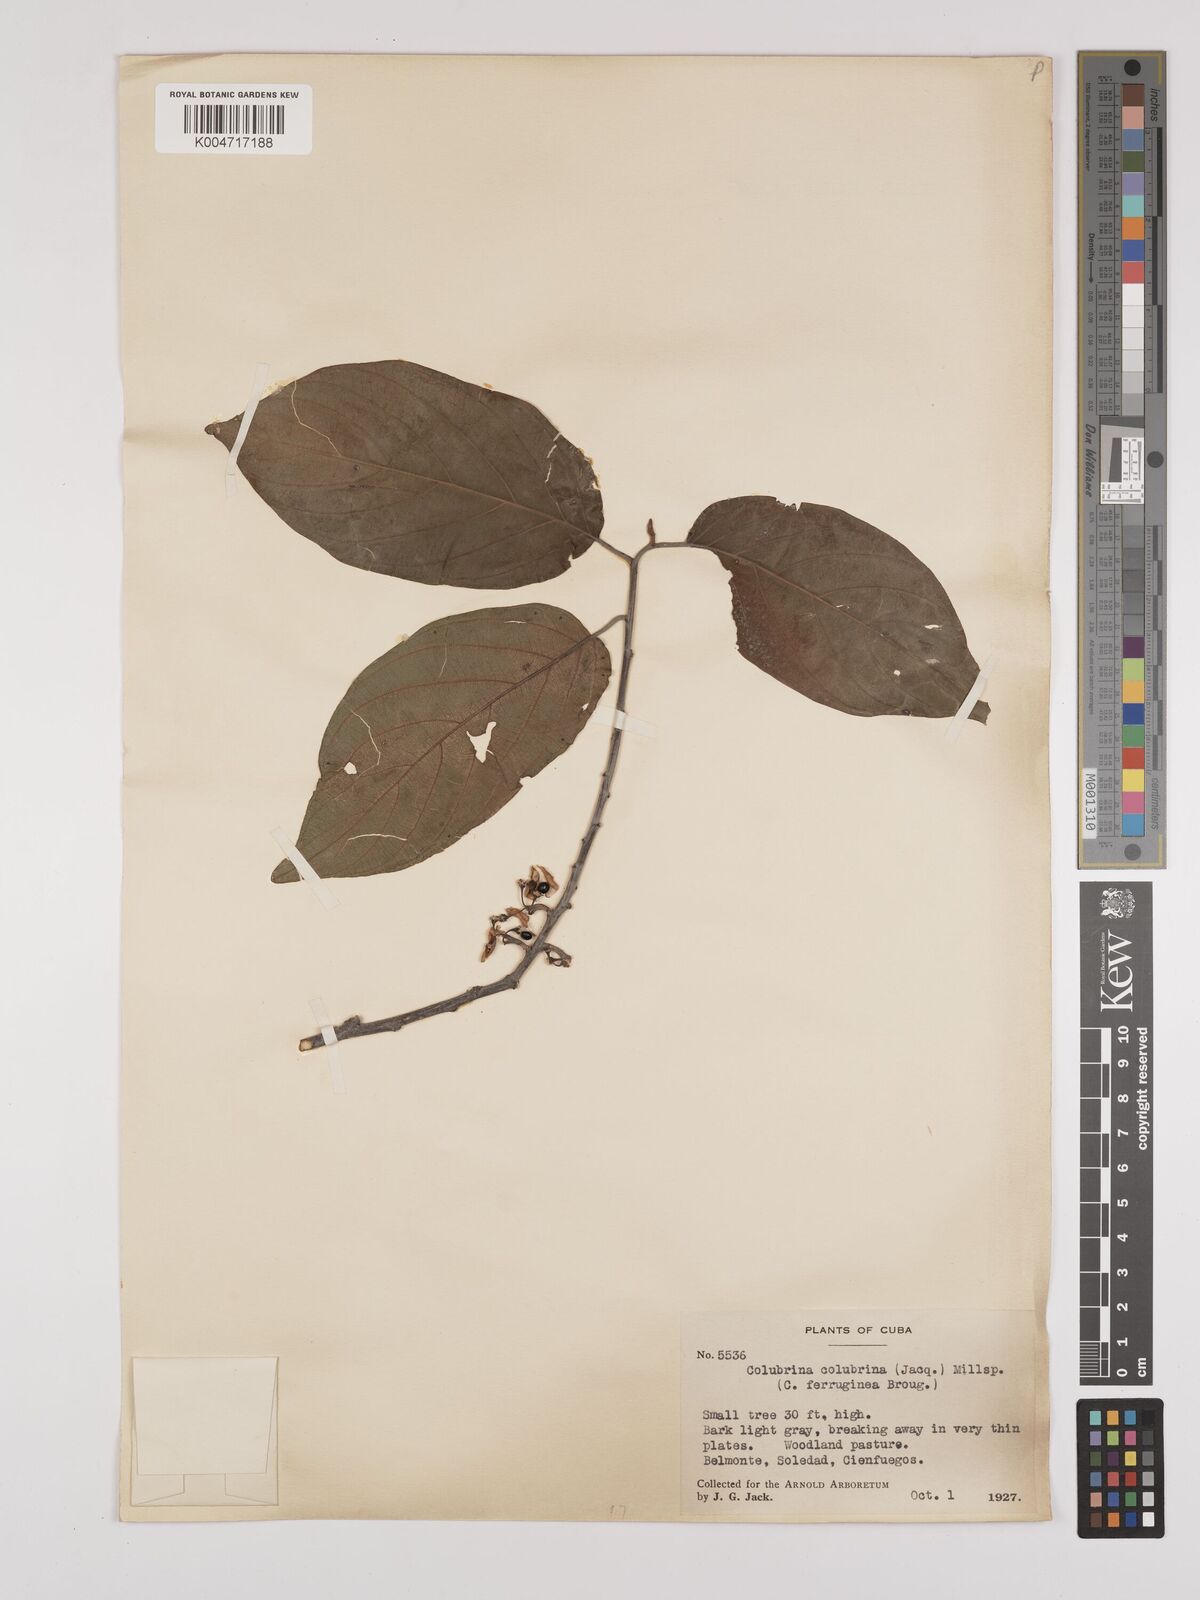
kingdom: Plantae
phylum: Tracheophyta
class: Magnoliopsida
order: Rosales
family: Rhamnaceae
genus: Colubrina
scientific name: Colubrina arborescens
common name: Wild coffee
